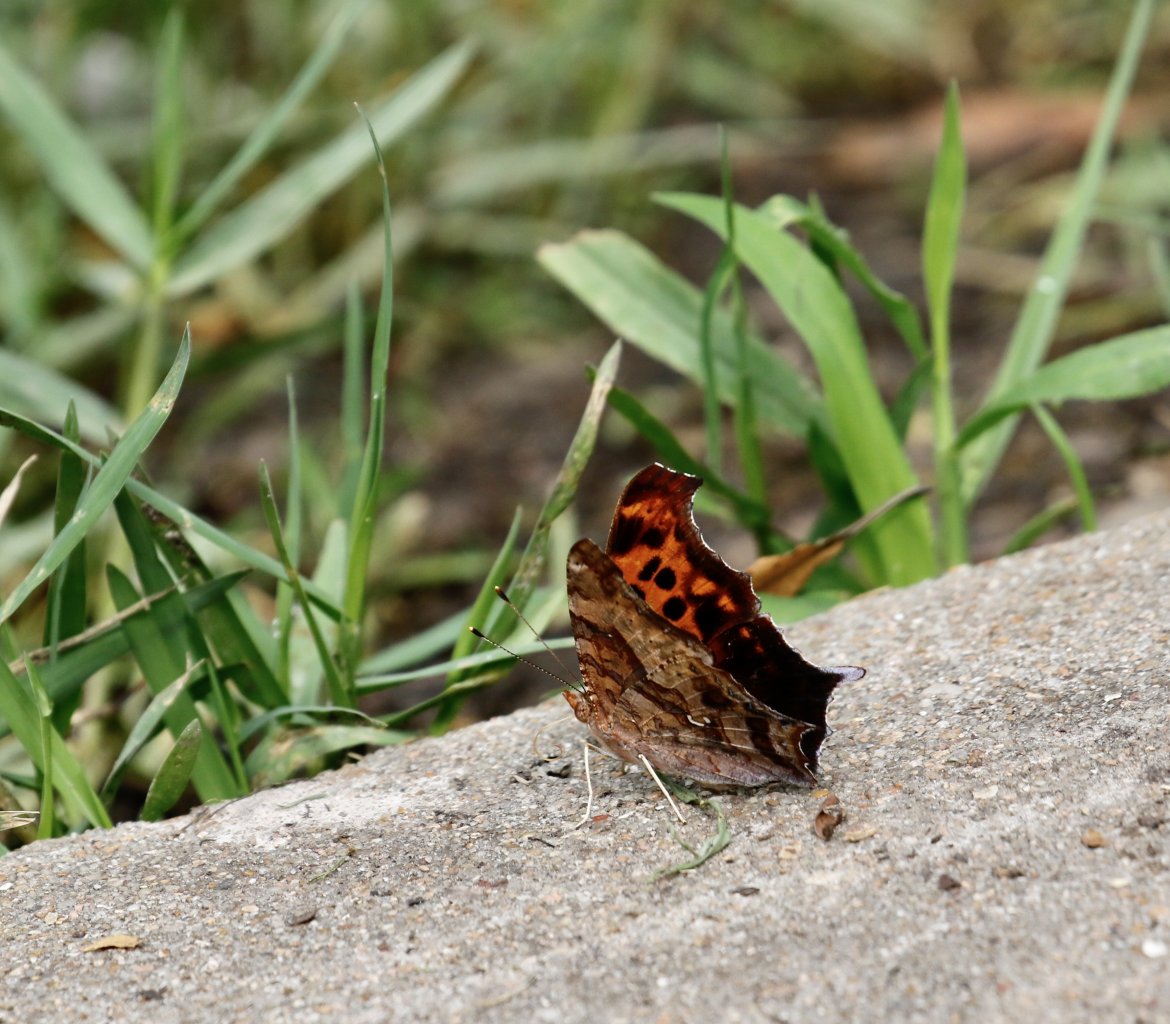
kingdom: Animalia
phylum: Arthropoda
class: Insecta
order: Lepidoptera
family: Nymphalidae
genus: Polygonia
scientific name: Polygonia interrogationis
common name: Question Mark
